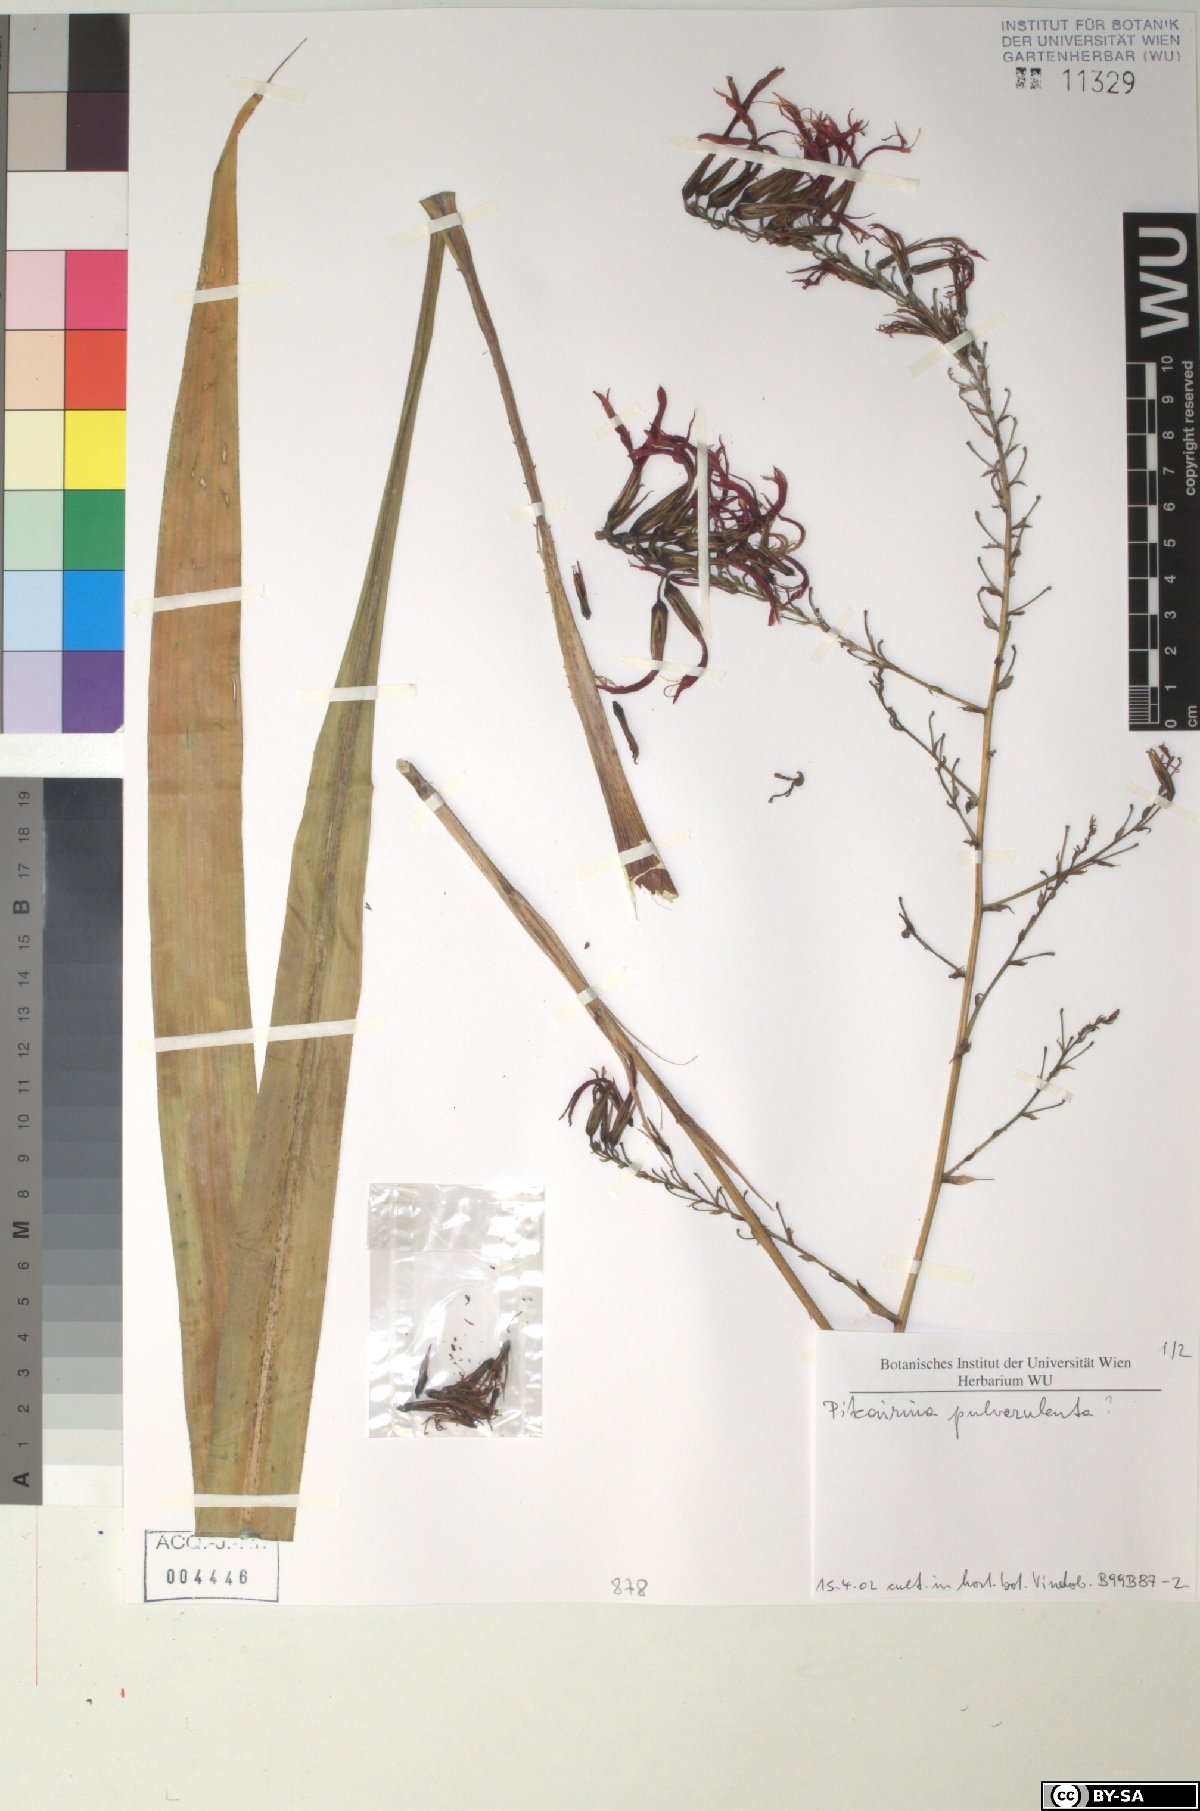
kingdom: Plantae
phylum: Tracheophyta
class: Liliopsida
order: Poales
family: Bromeliaceae
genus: Pitcairnia
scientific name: Pitcairnia pulverulenta
